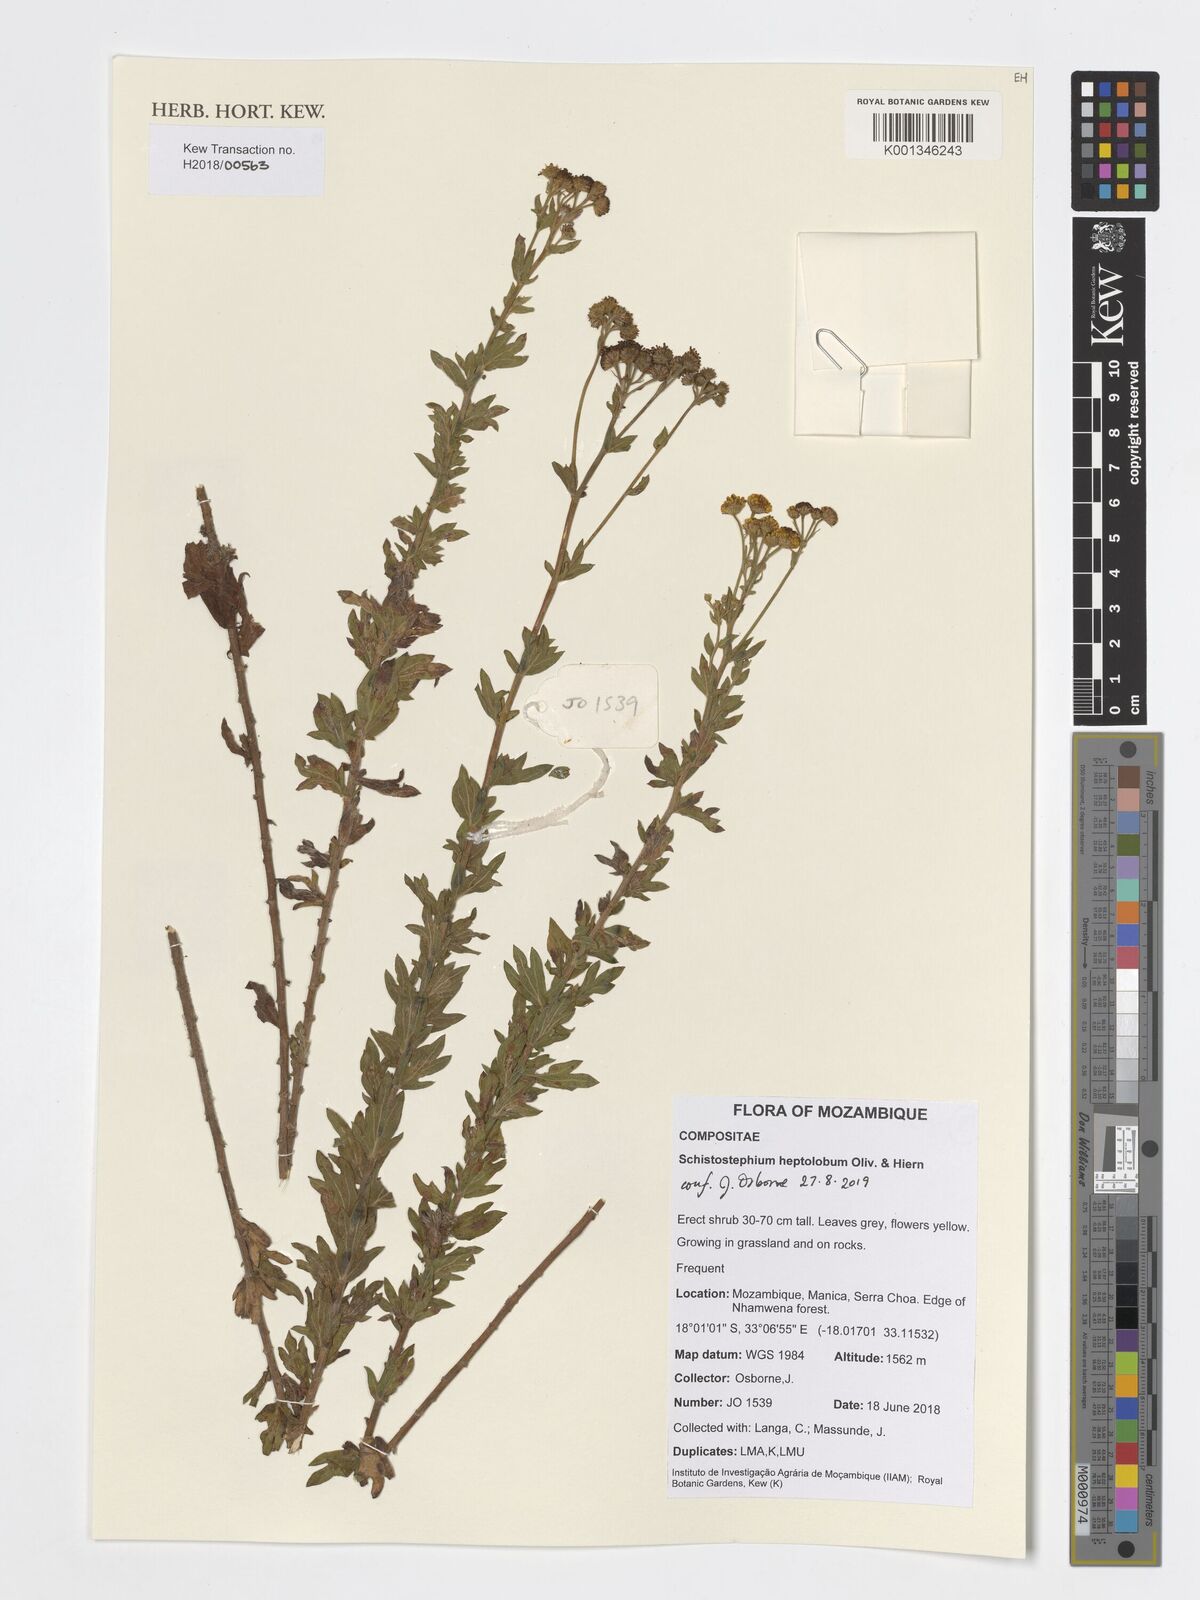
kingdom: Plantae
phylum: Tracheophyta
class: Magnoliopsida
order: Asterales
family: Asteraceae
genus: Schistostephium
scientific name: Schistostephium heptalobum
